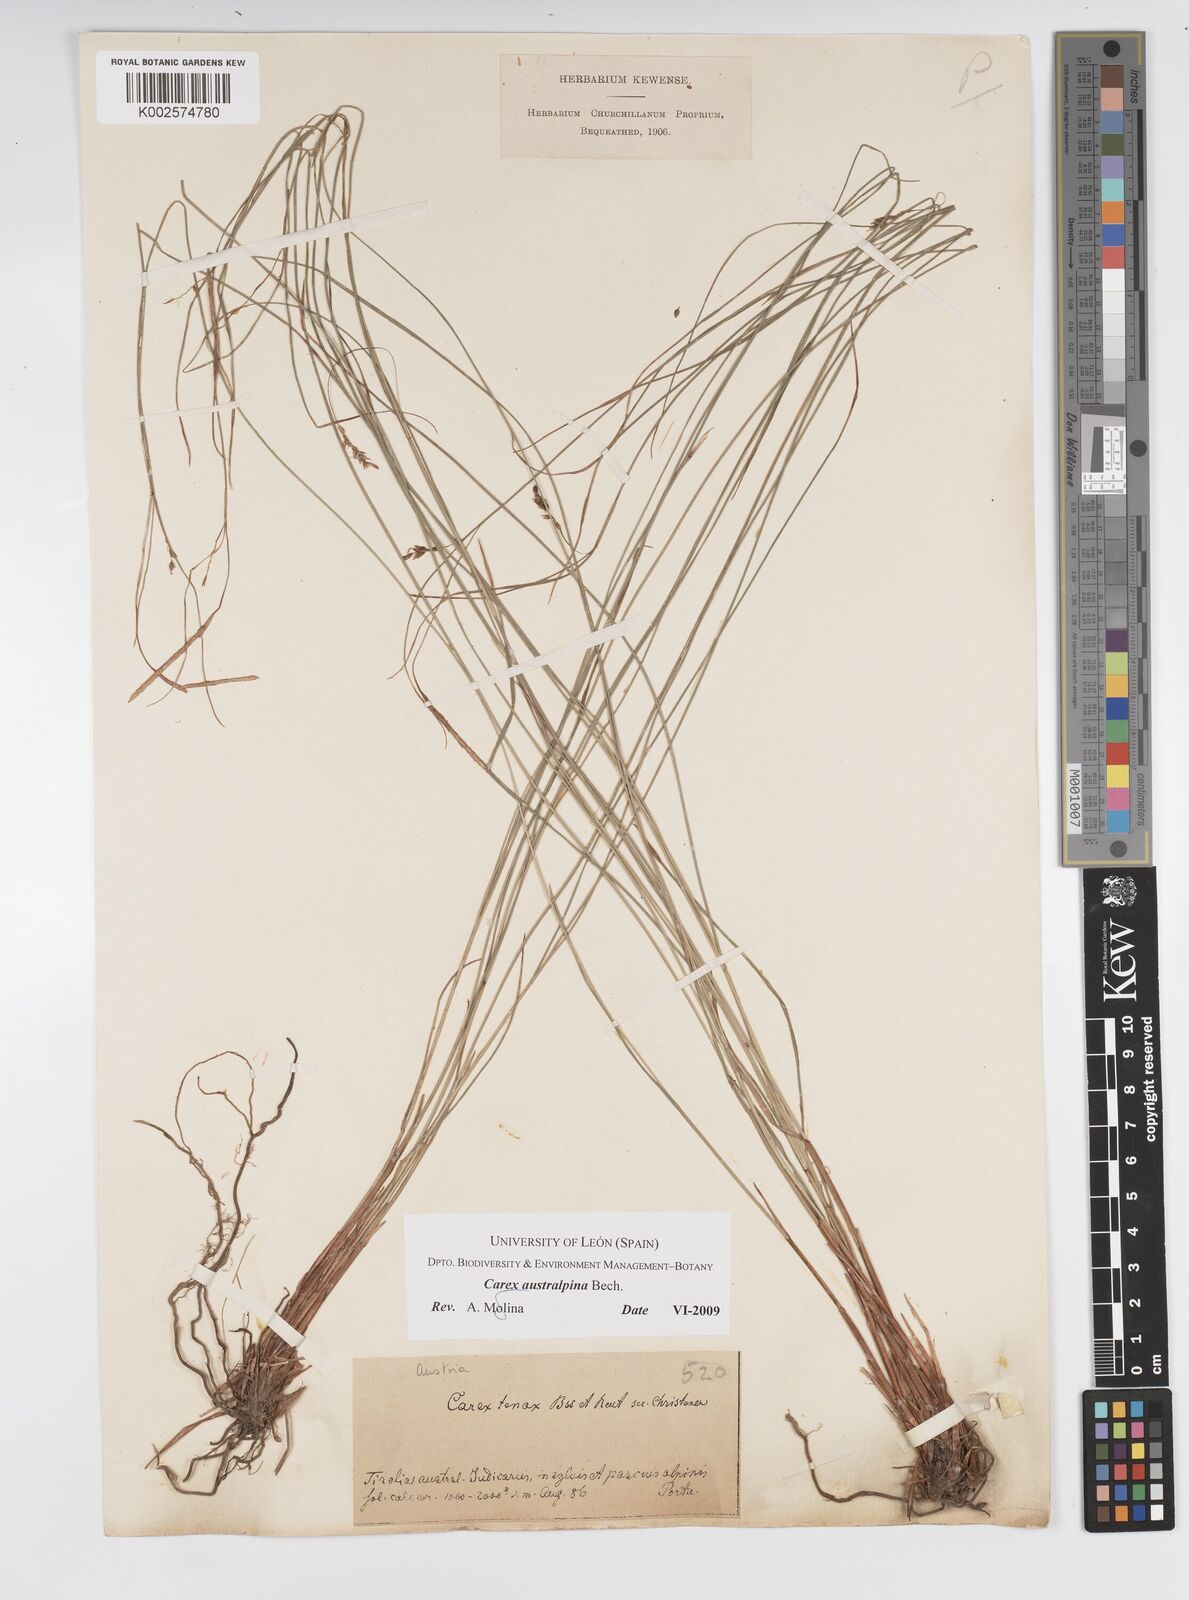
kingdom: Plantae
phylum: Tracheophyta
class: Liliopsida
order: Poales
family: Cyperaceae
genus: Carex
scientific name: Carex austroalpina
